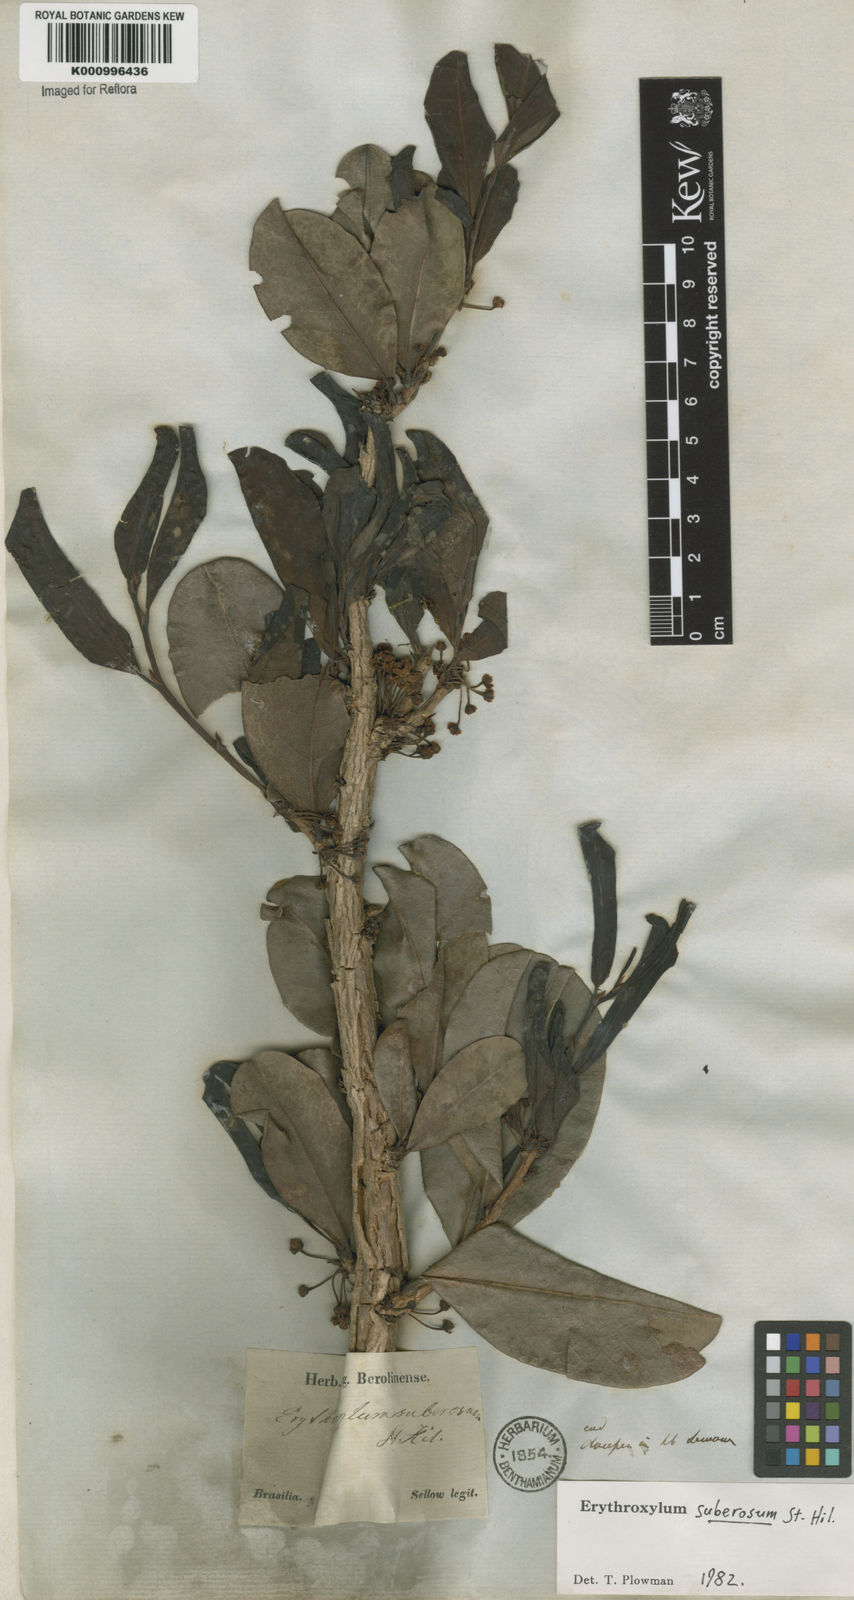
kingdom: Plantae
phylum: Tracheophyta
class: Magnoliopsida
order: Malpighiales
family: Erythroxylaceae
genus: Erythroxylum
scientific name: Erythroxylum suberosum
